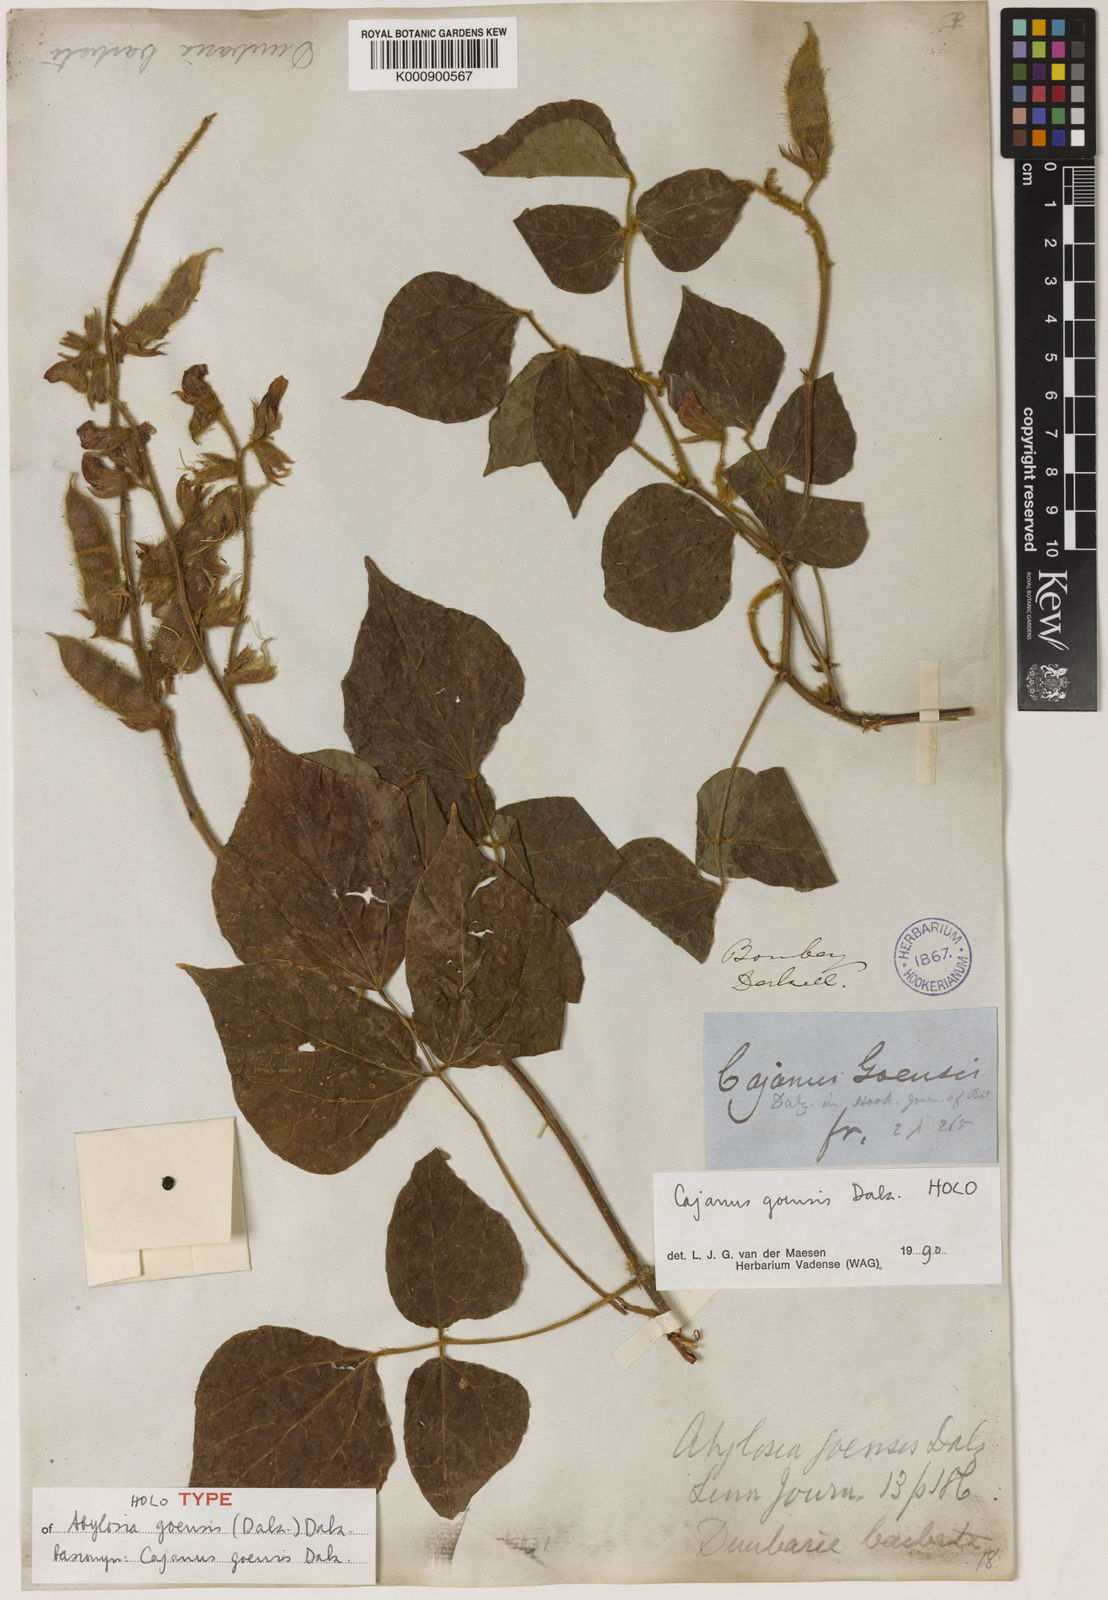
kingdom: Plantae
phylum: Tracheophyta
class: Magnoliopsida
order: Fabales
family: Fabaceae
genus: Cajanus
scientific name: Cajanus goensis
